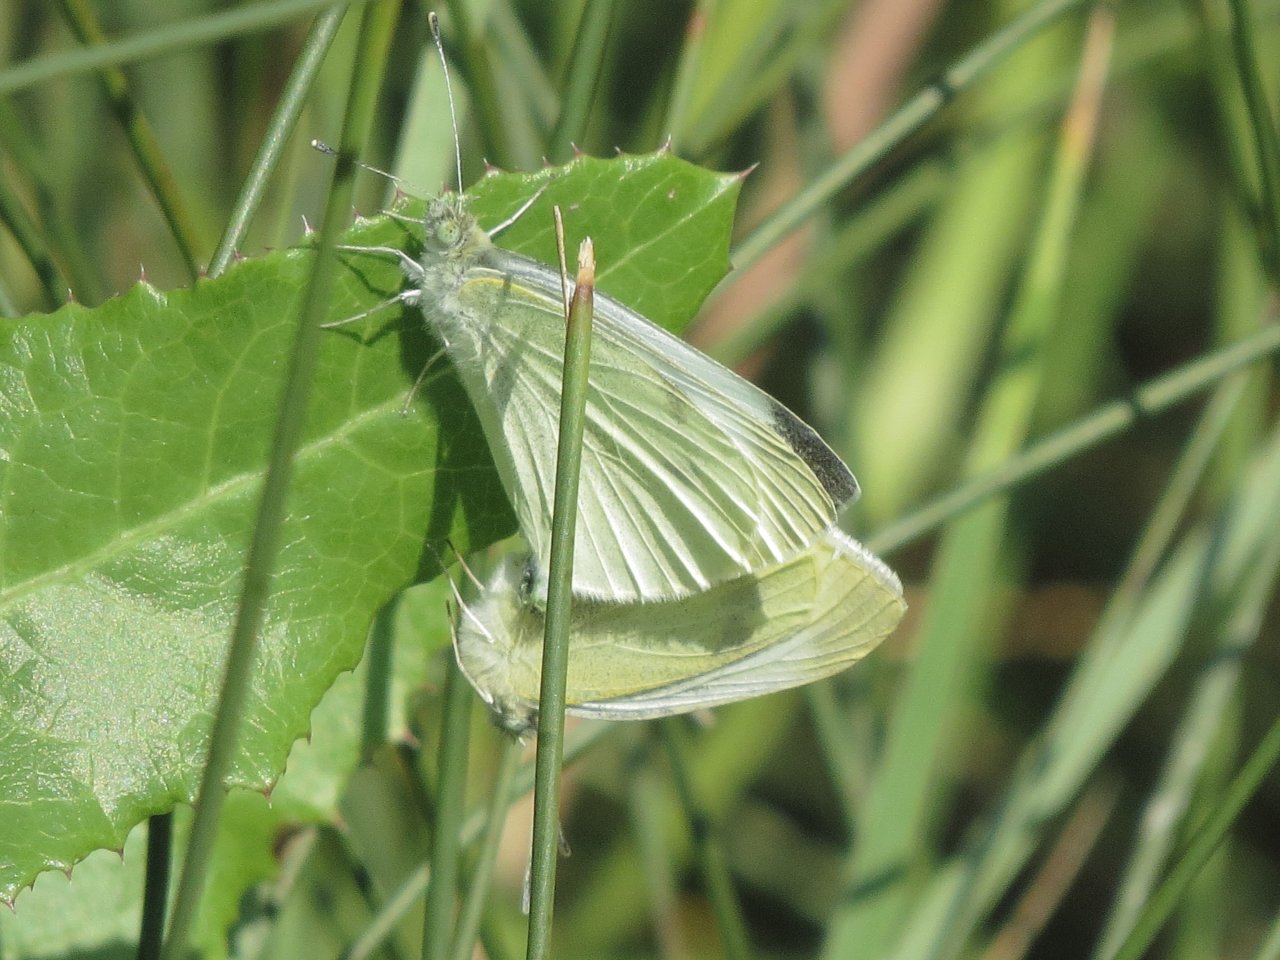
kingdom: Animalia
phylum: Arthropoda
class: Insecta
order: Lepidoptera
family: Pieridae
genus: Pieris
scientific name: Pieris rapae
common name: Cabbage White
